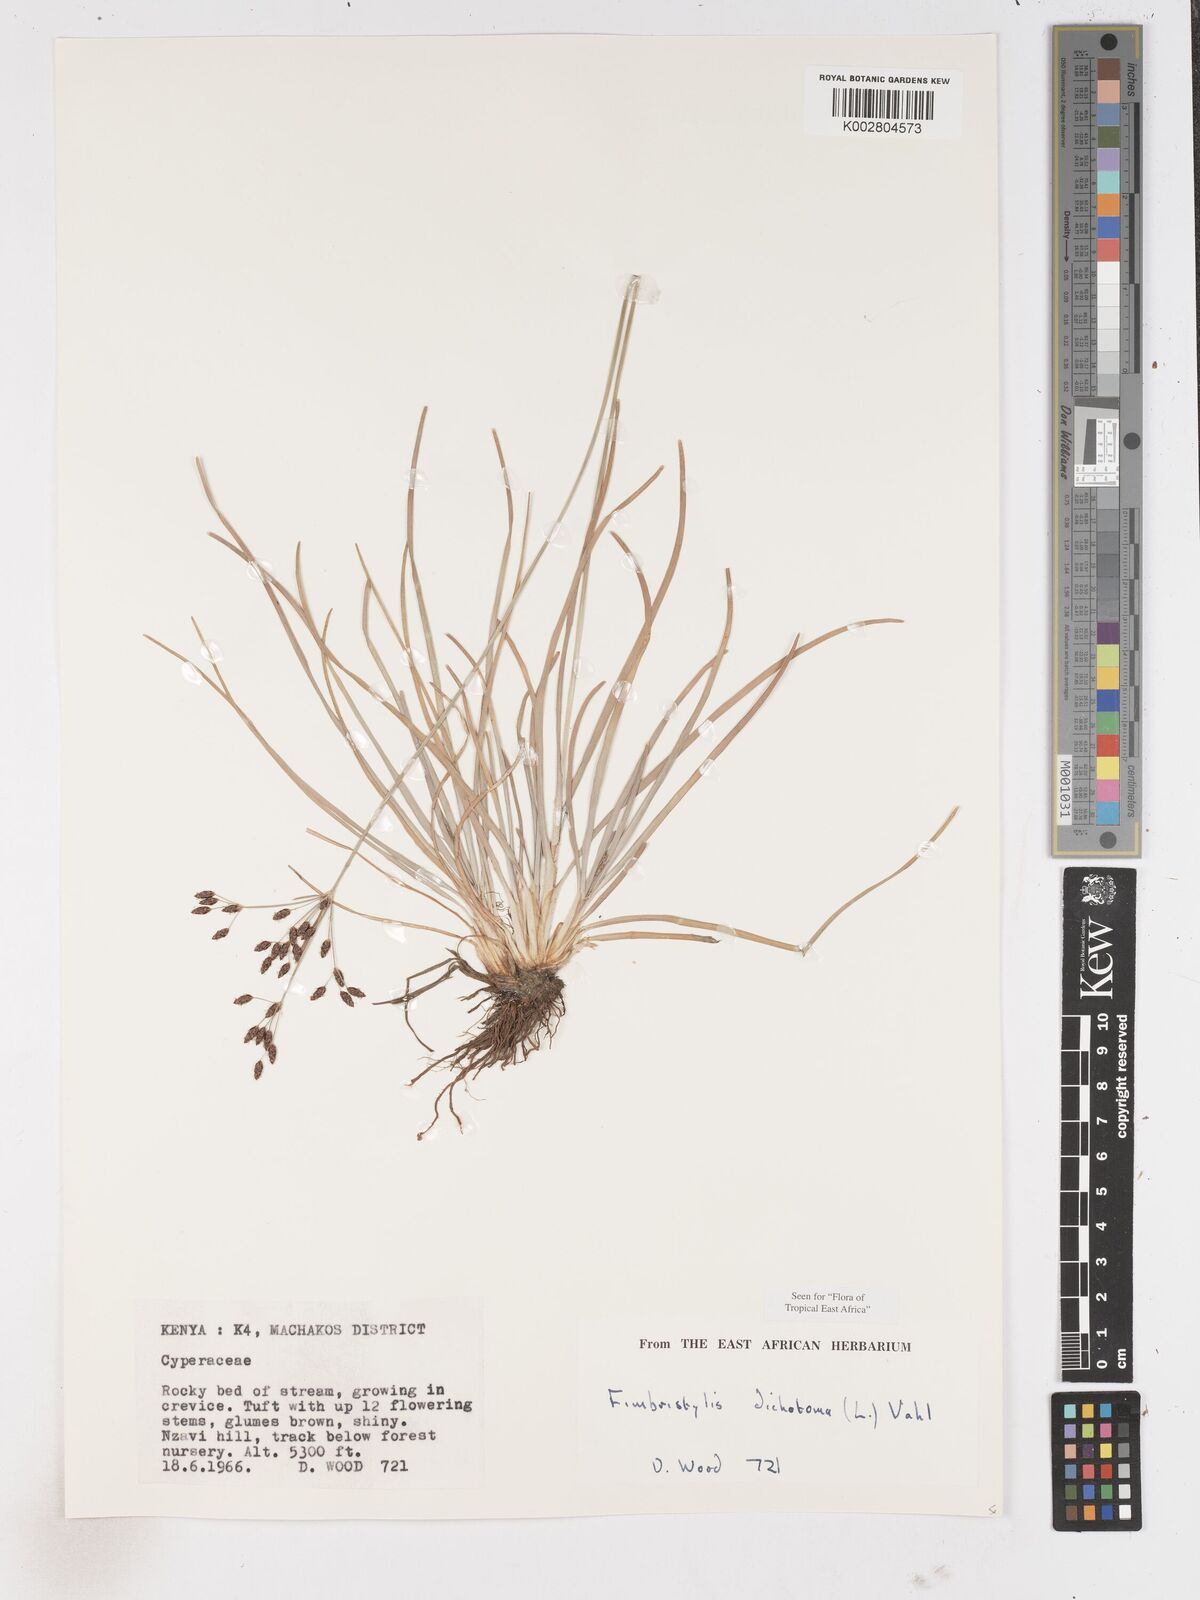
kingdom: Plantae
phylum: Tracheophyta
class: Liliopsida
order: Poales
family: Cyperaceae
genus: Fimbristylis
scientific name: Fimbristylis dichotoma
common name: Forked fimbry
